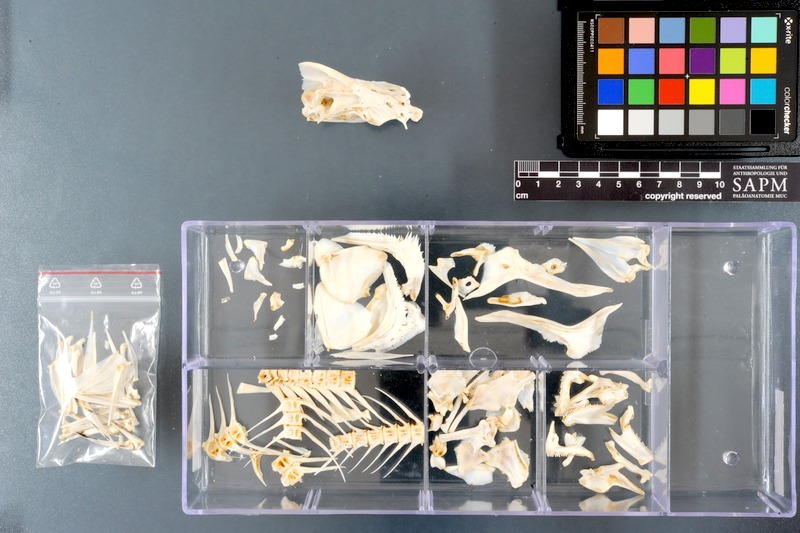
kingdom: Animalia
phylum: Chordata
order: Perciformes
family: Lobotidae
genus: Lobotes
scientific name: Lobotes surinamensis
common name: Atlantic tripletail
